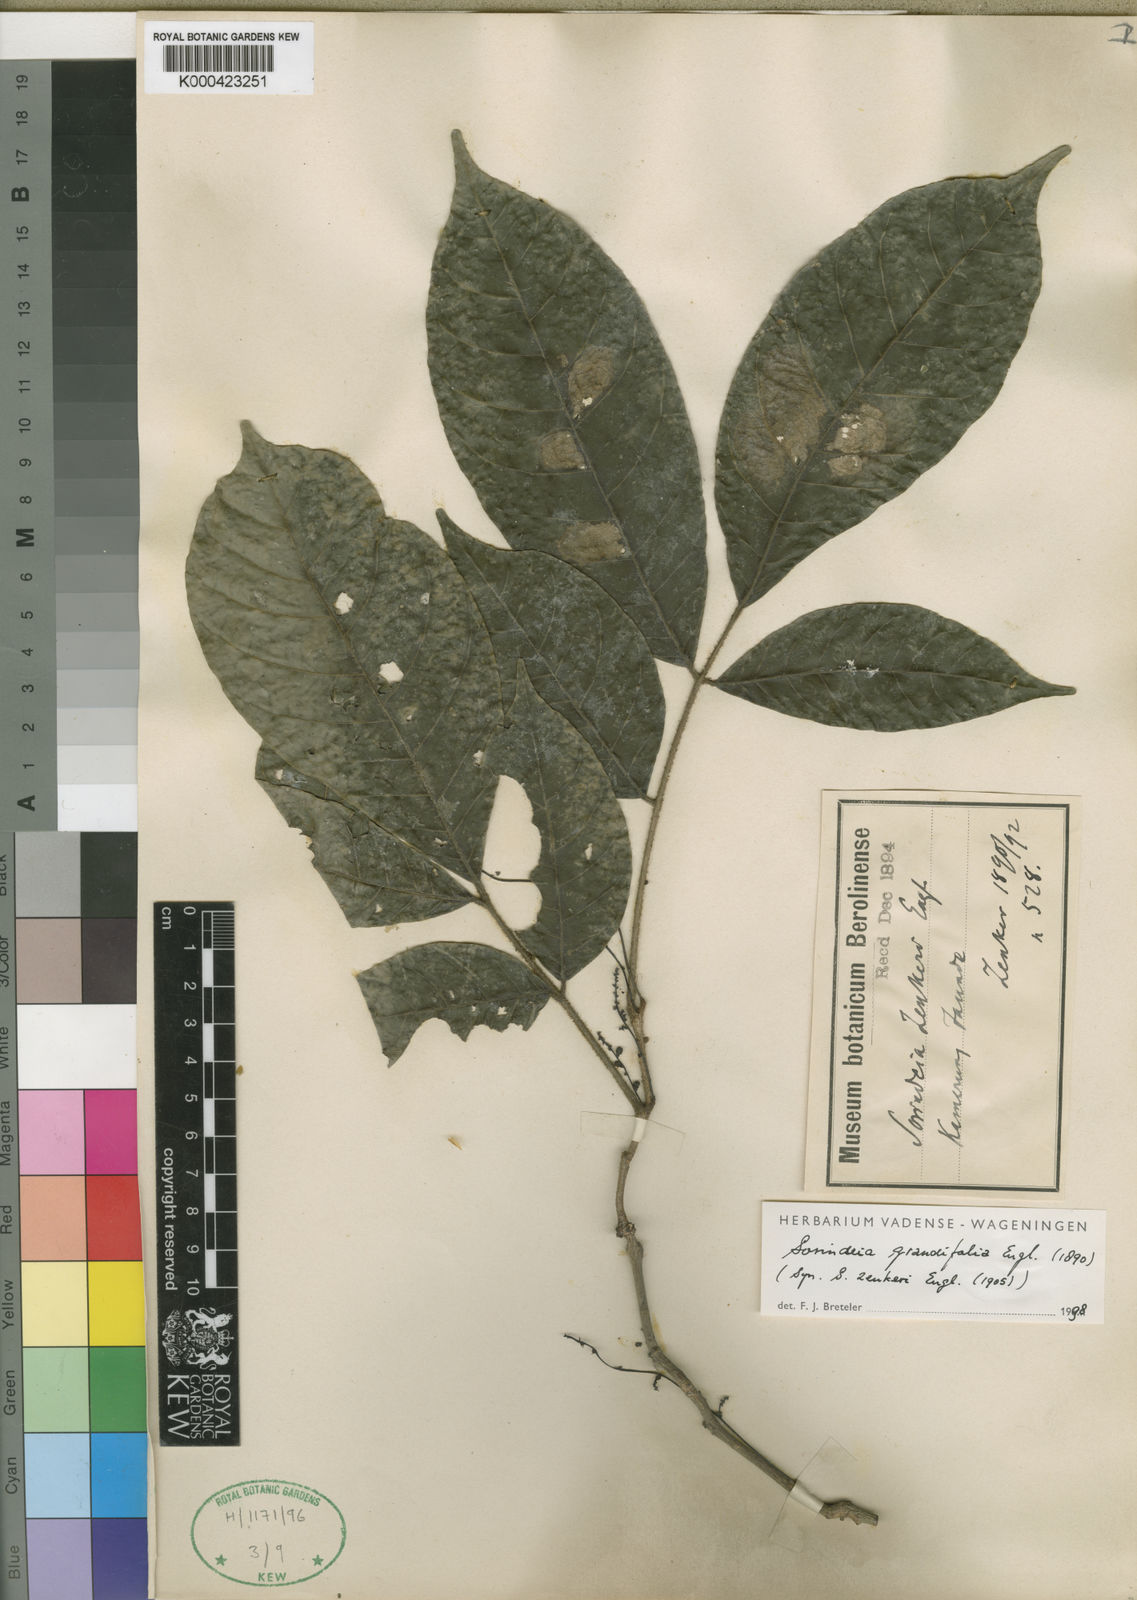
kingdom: Plantae
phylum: Tracheophyta
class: Magnoliopsida
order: Sapindales
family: Anacardiaceae
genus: Sorindeia
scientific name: Sorindeia grandifolia
